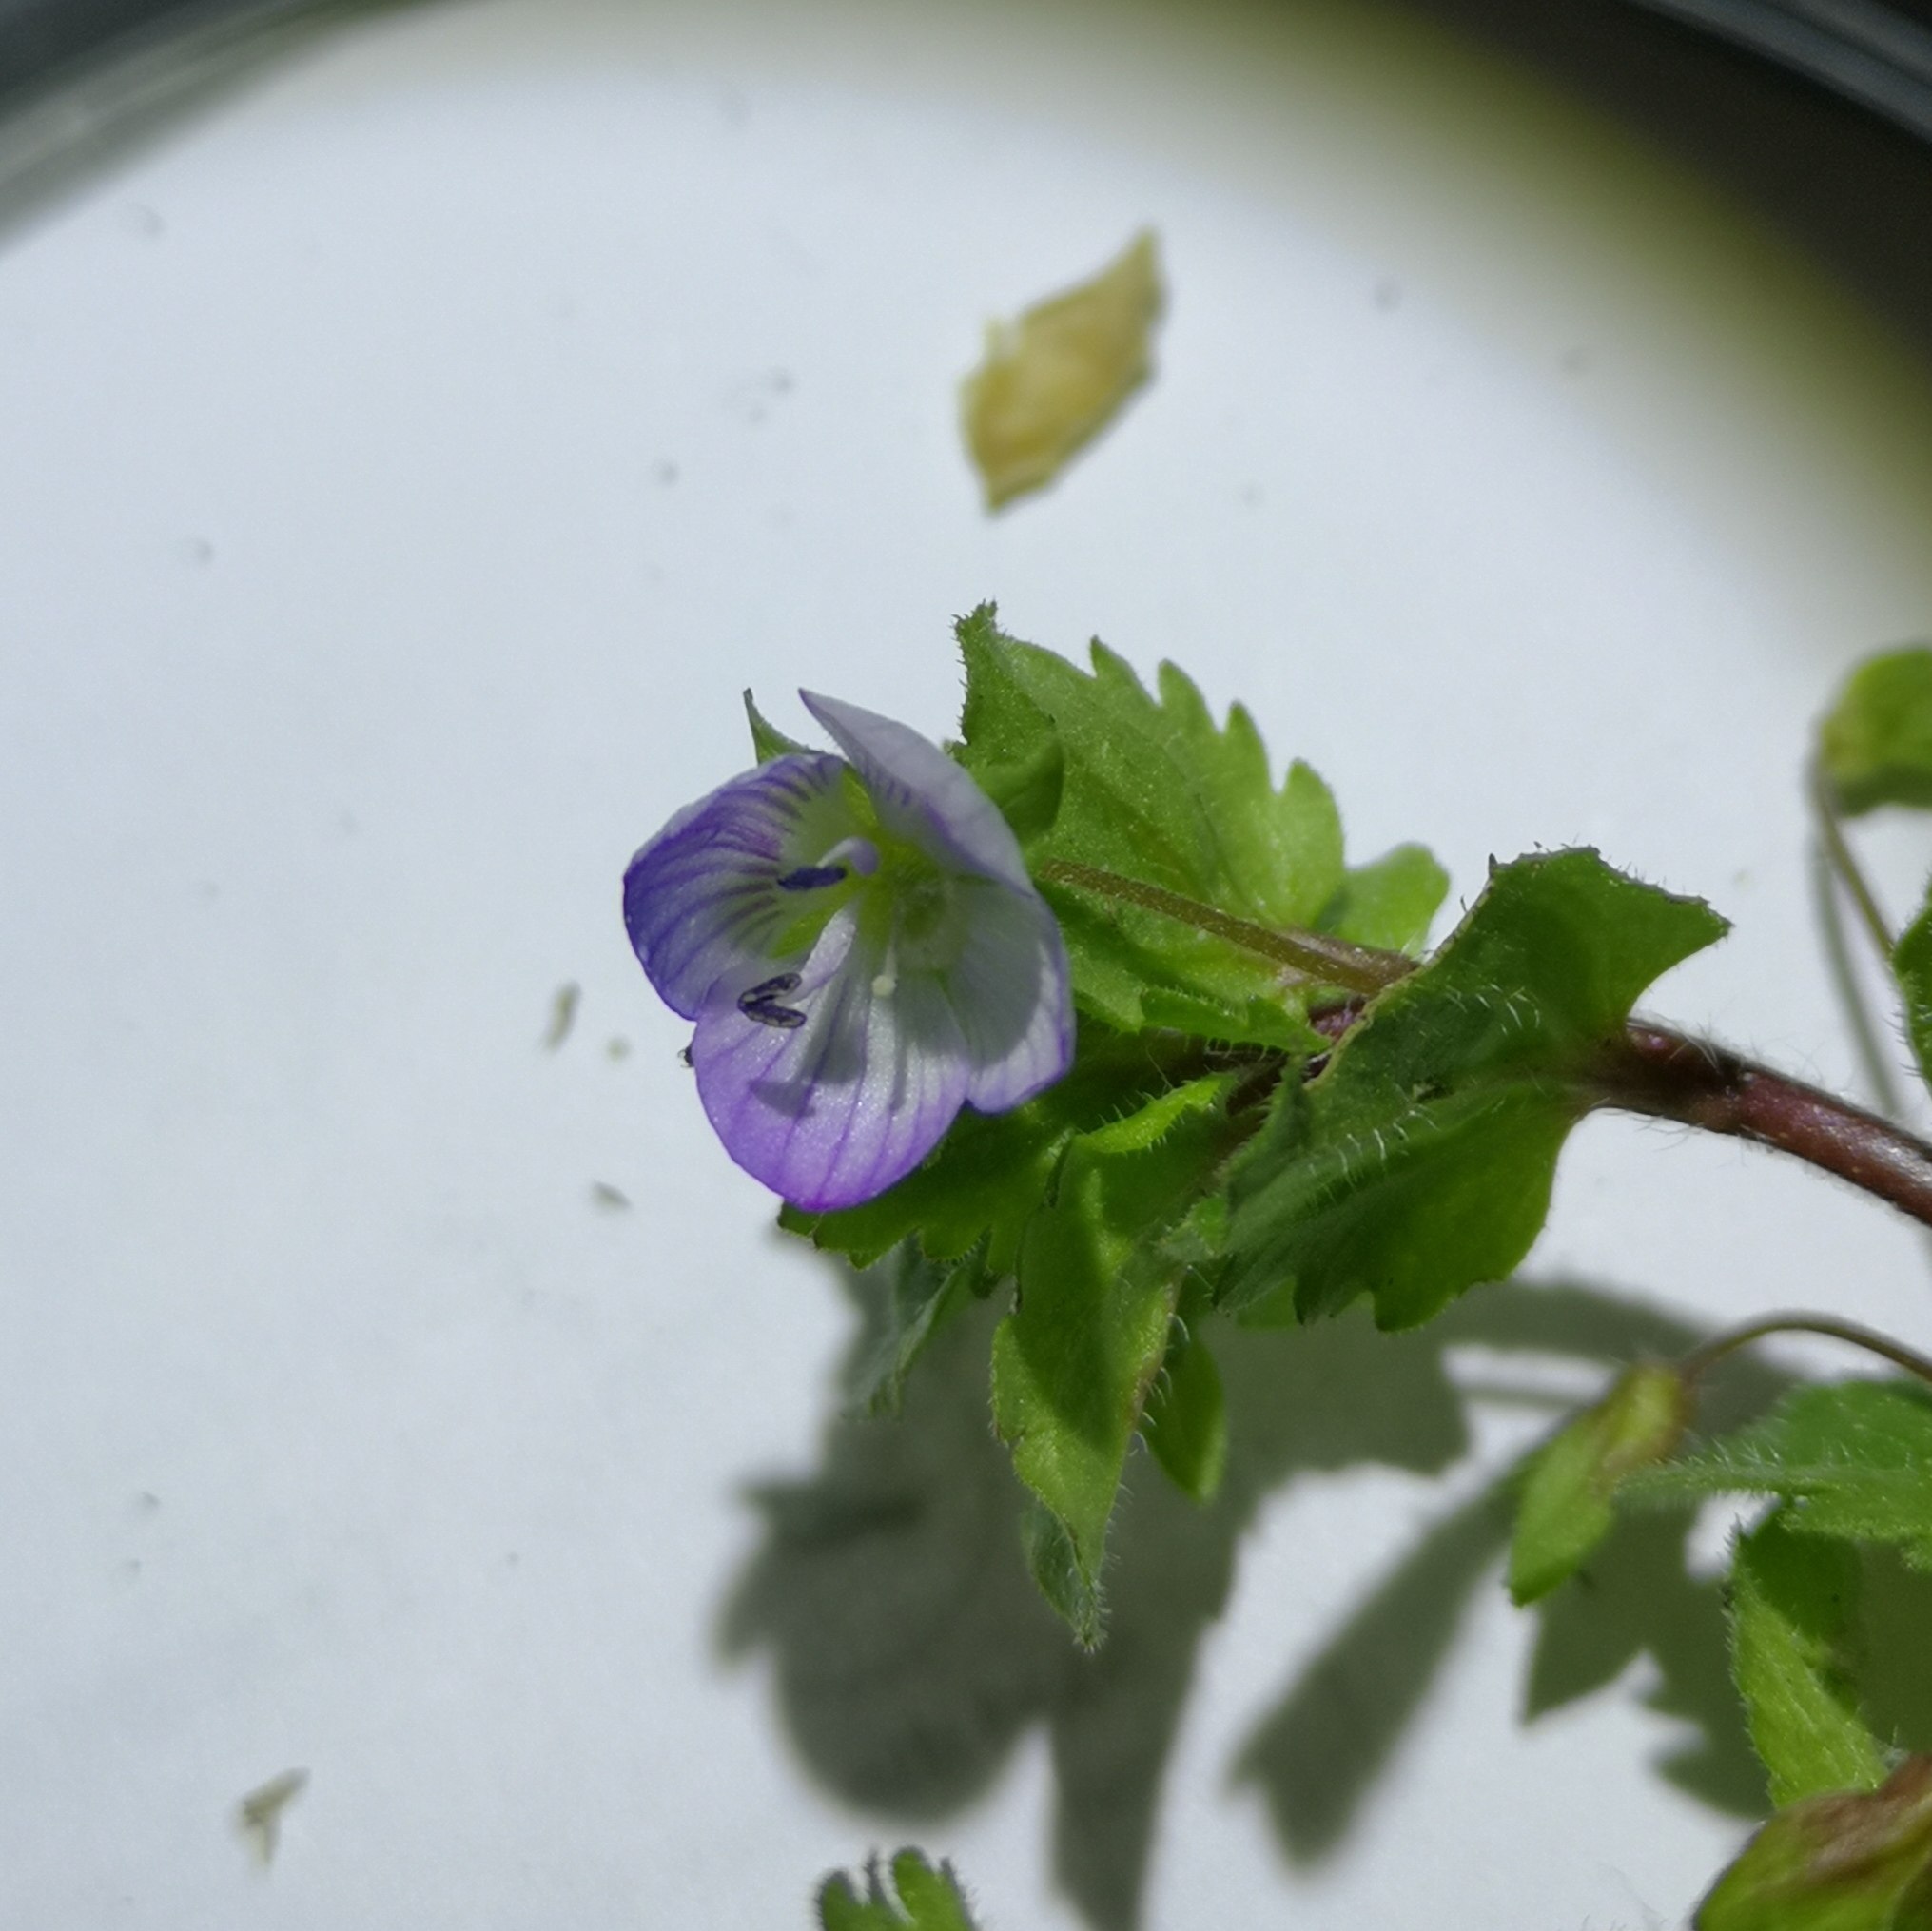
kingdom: Plantae
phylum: Tracheophyta
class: Magnoliopsida
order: Lamiales
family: Plantaginaceae
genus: Veronica
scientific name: Veronica persica
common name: Storkronet ærenpris
